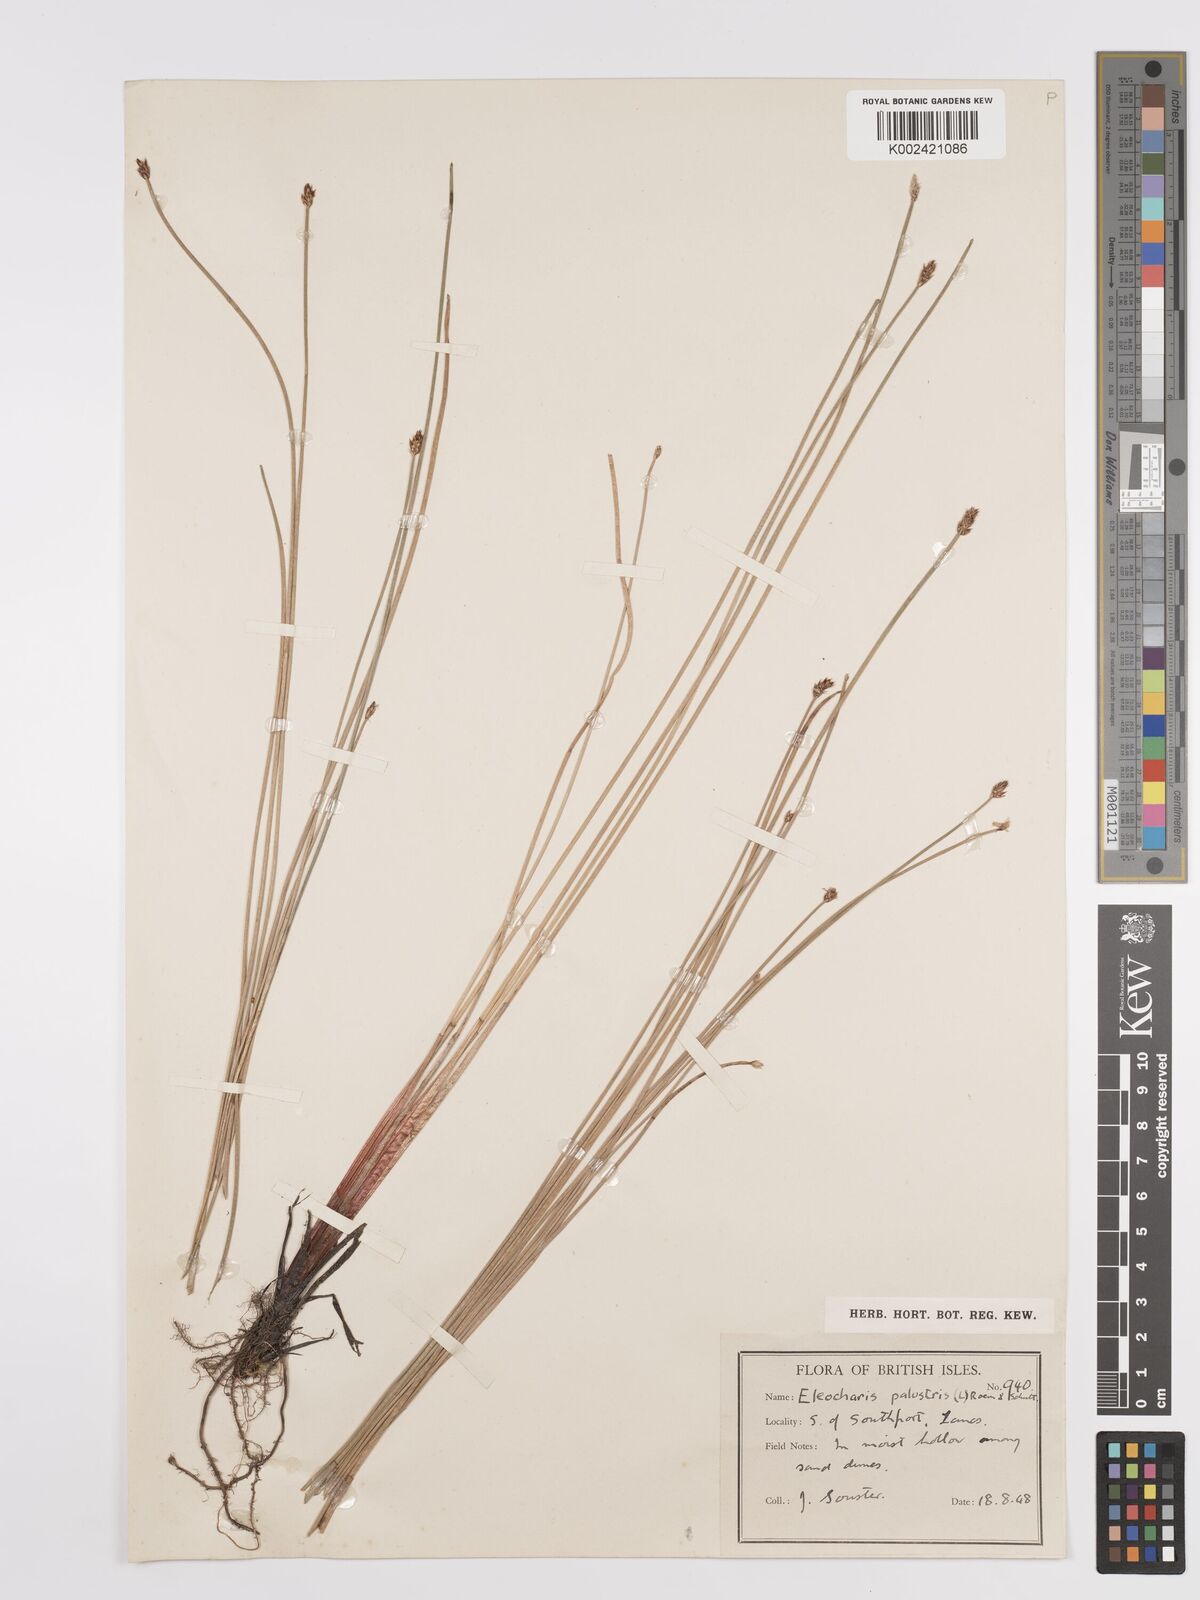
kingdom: Plantae
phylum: Tracheophyta
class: Liliopsida
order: Poales
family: Cyperaceae
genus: Eleocharis
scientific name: Eleocharis palustris
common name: Common spike-rush
